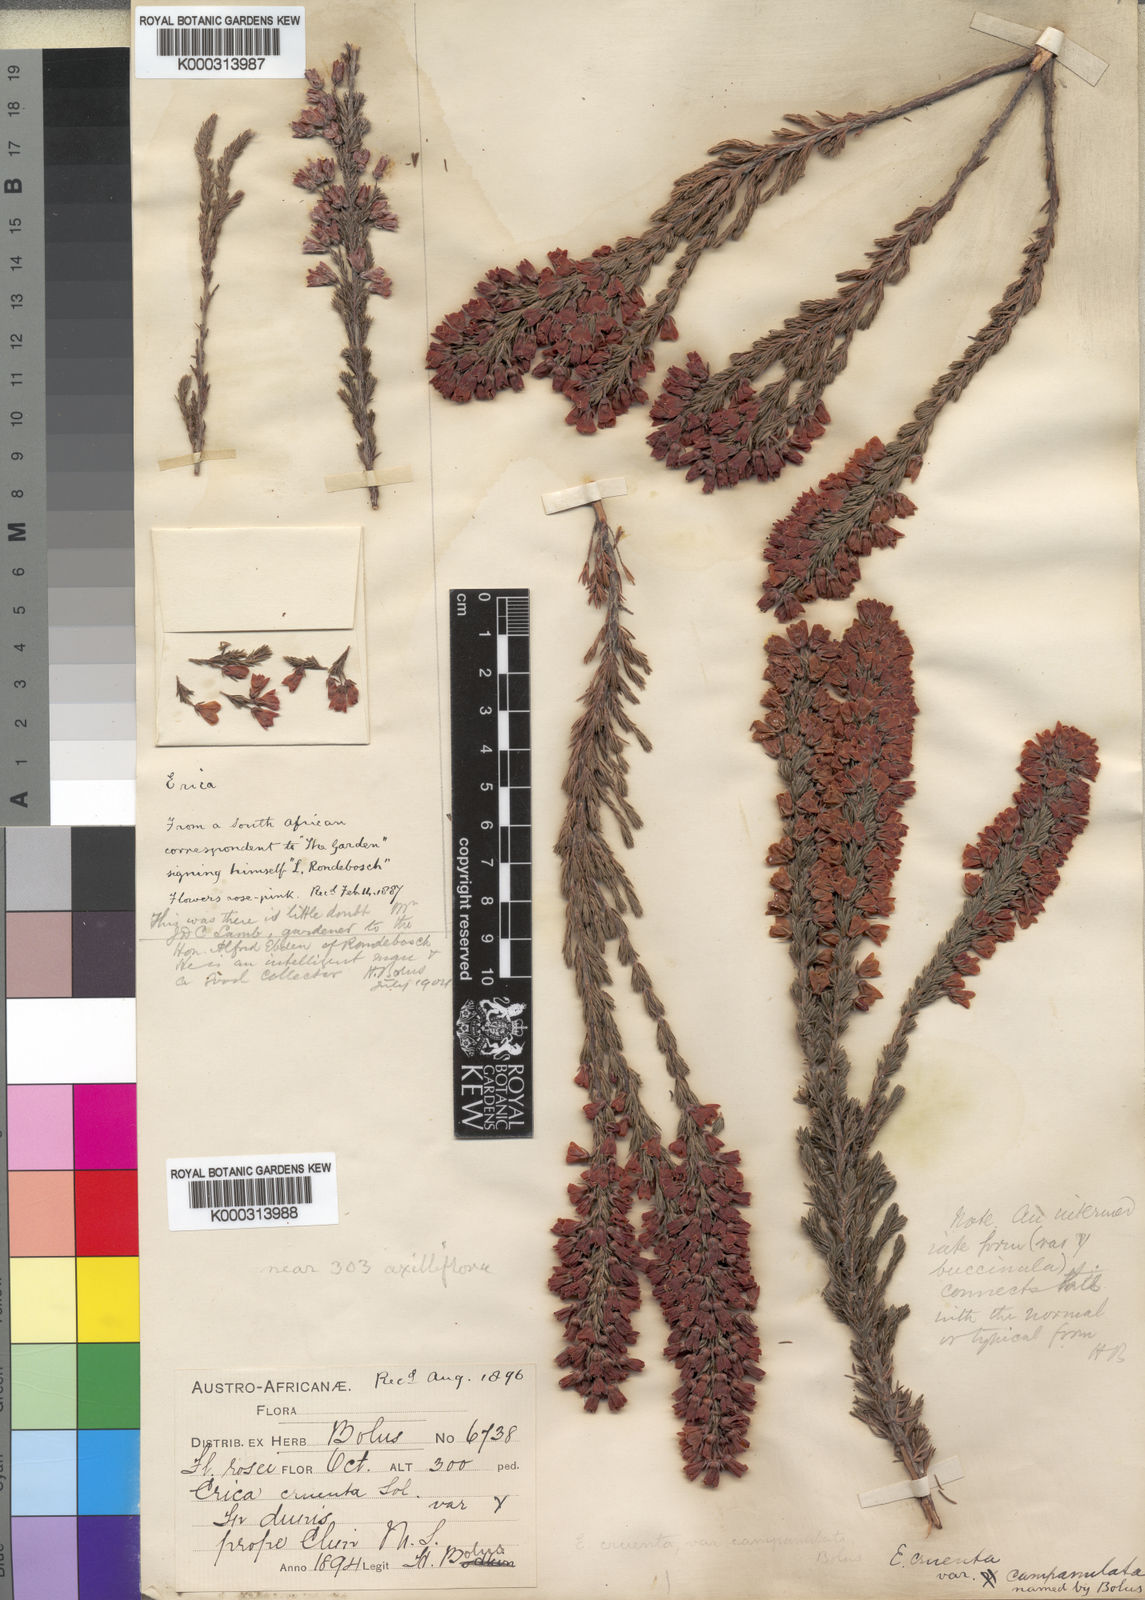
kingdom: Plantae
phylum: Tracheophyta
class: Magnoliopsida
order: Ericales
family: Ericaceae
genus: Erica
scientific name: Erica
